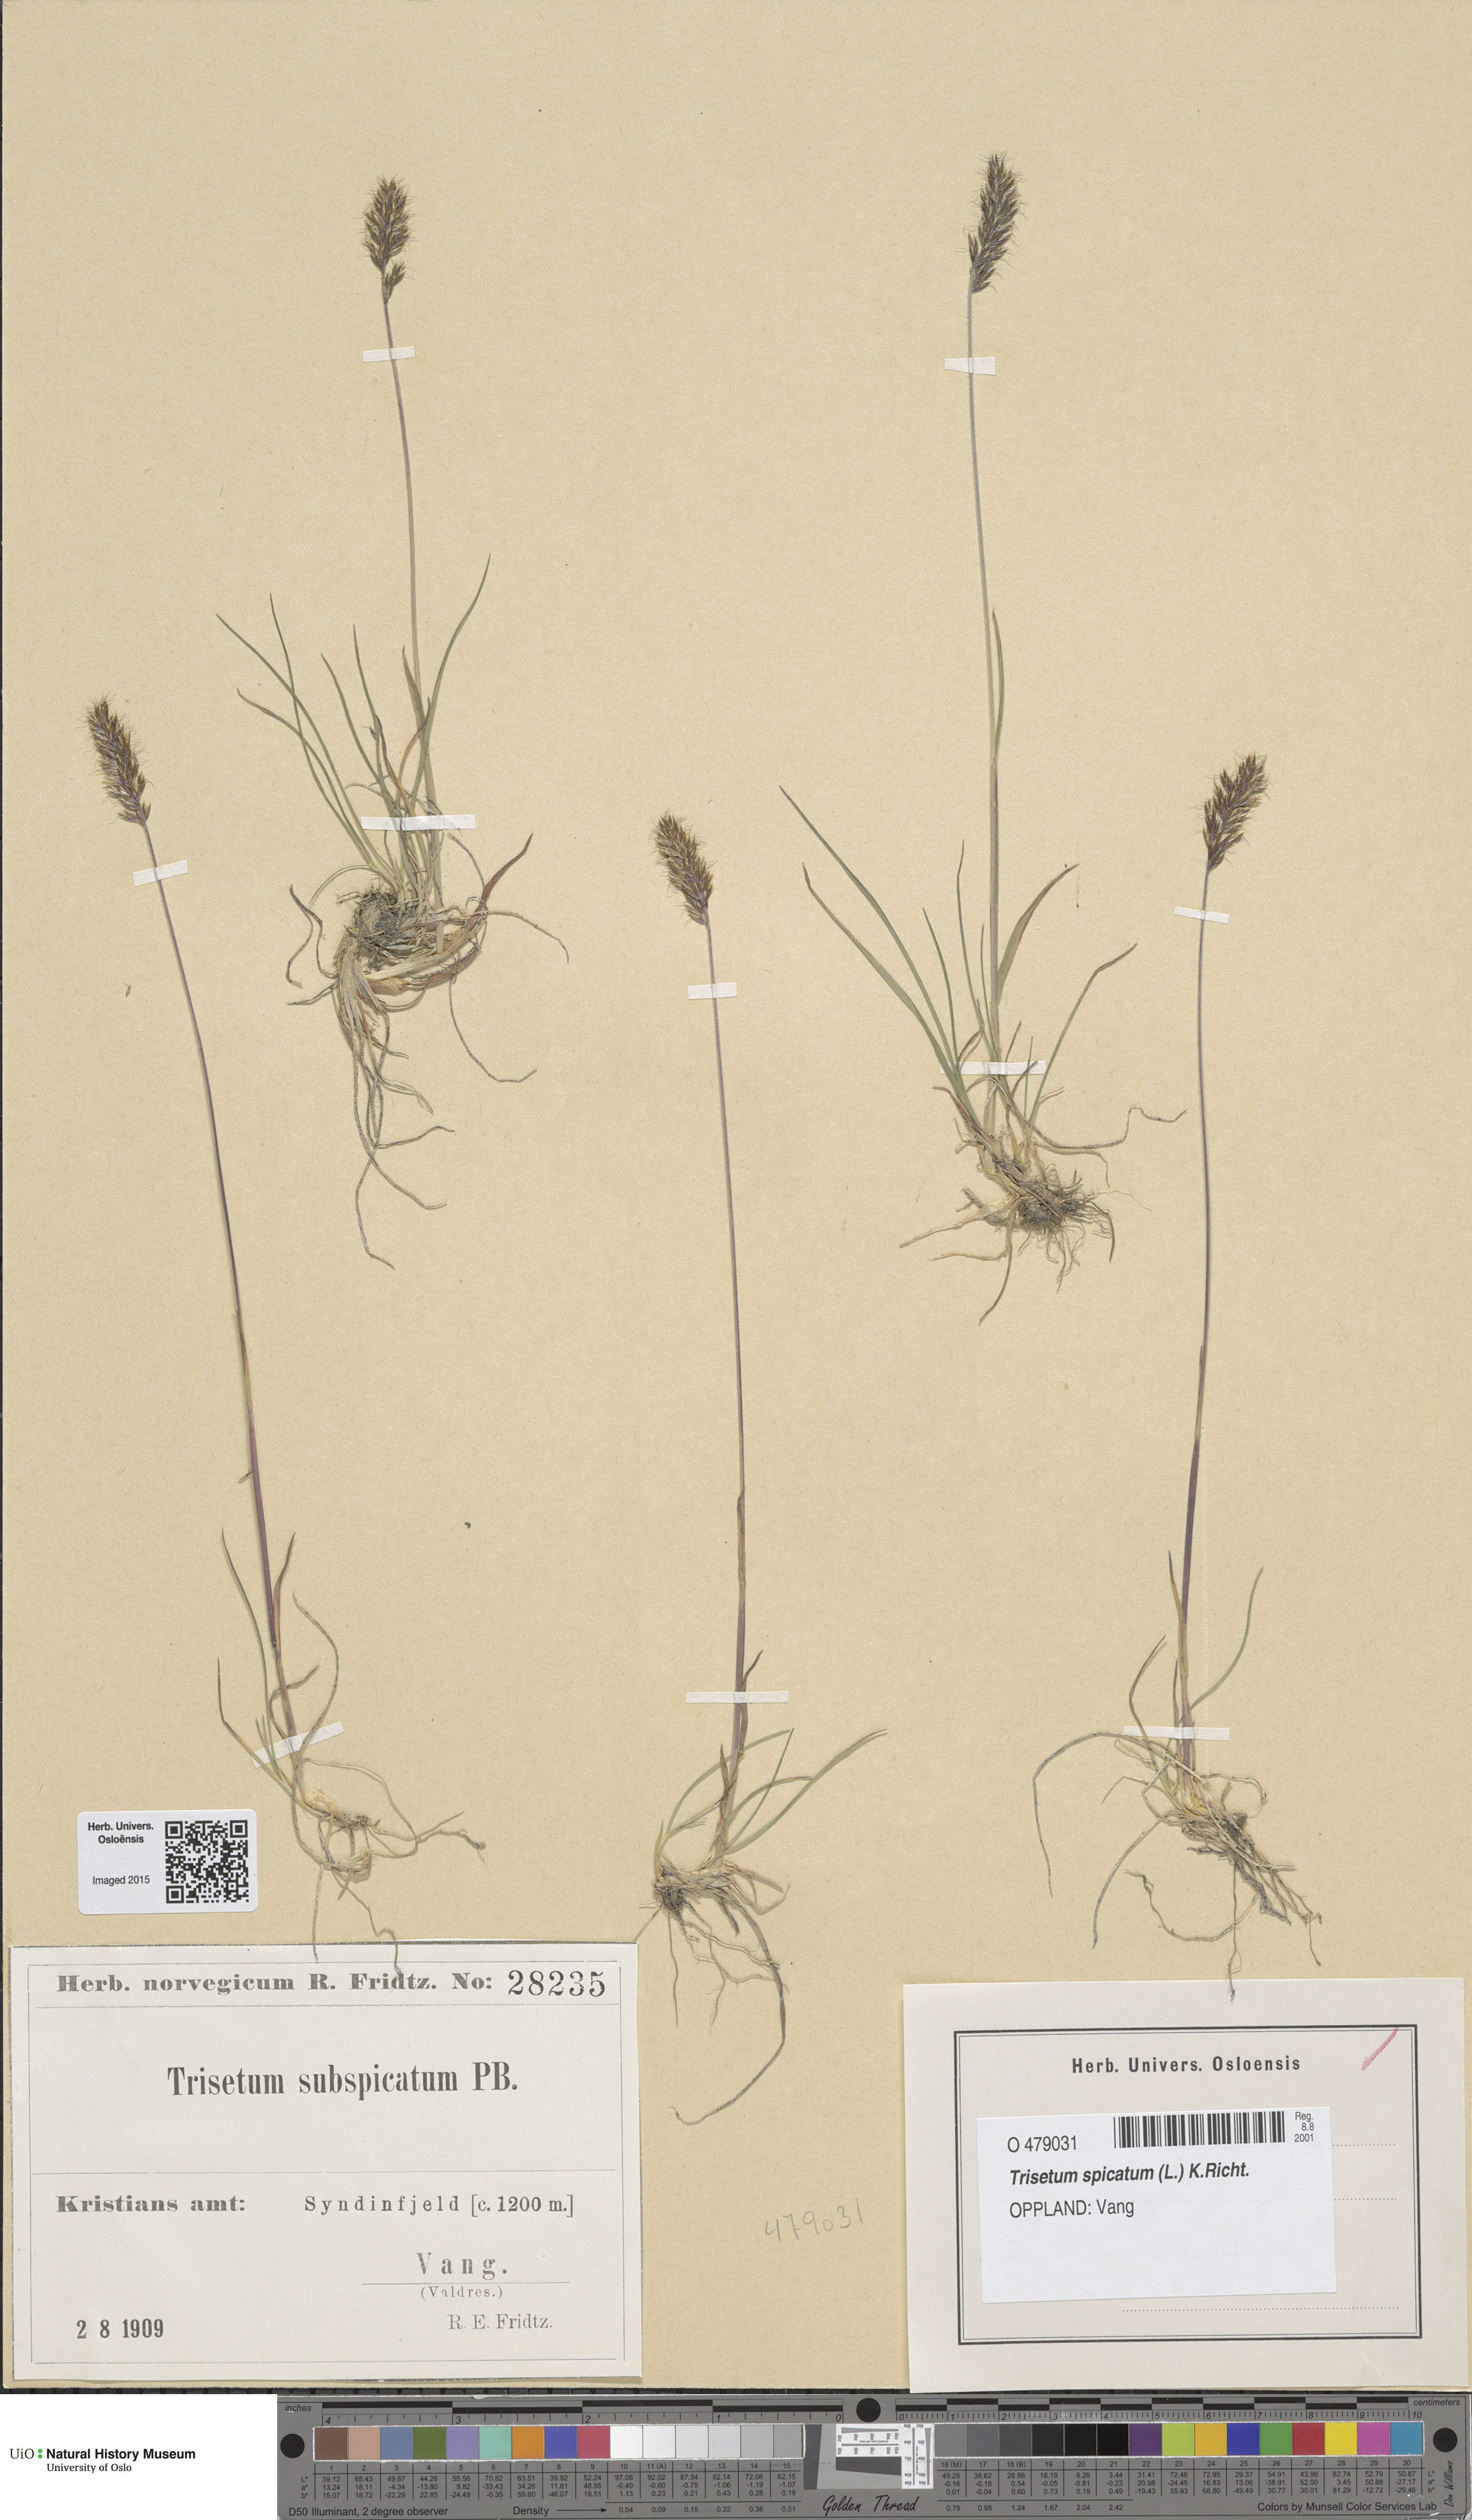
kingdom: Plantae
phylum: Tracheophyta
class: Liliopsida
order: Poales
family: Poaceae
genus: Koeleria
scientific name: Koeleria spicata
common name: Mountain trisetum
